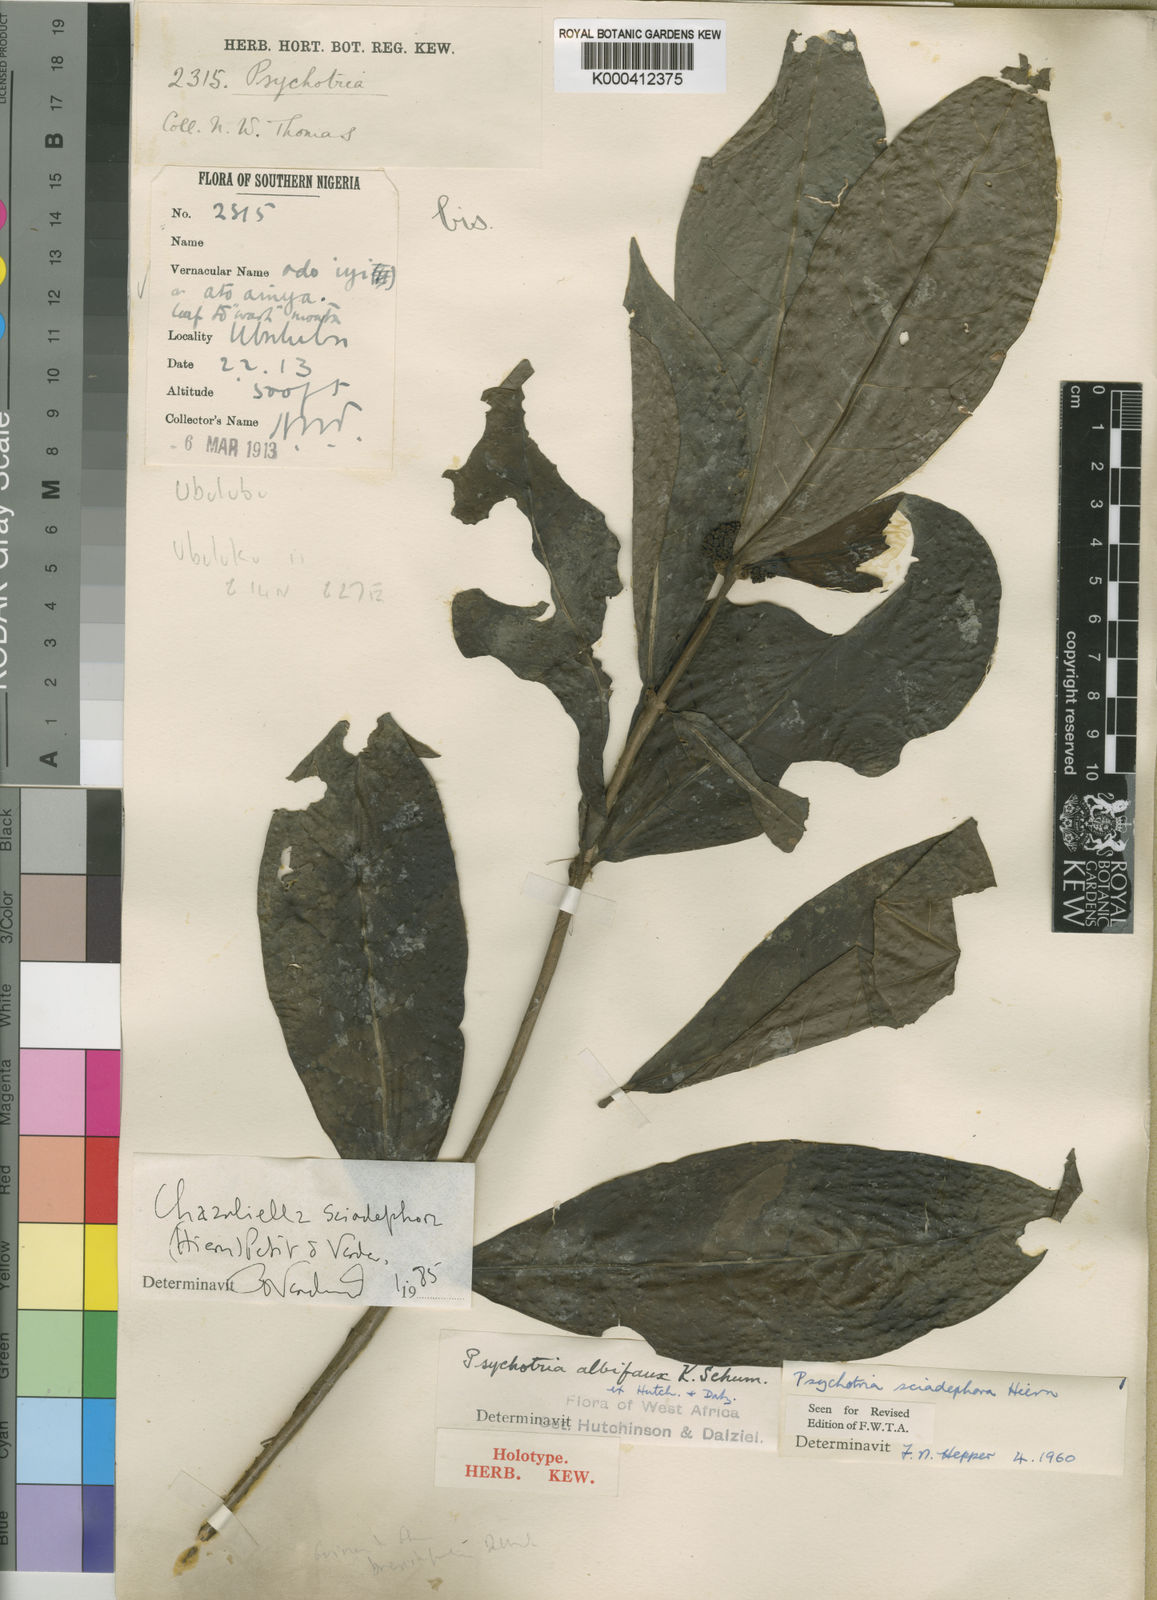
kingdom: Plantae
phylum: Tracheophyta
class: Magnoliopsida
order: Gentianales
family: Rubiaceae
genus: Eumachia
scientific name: Eumachia sciadephora
